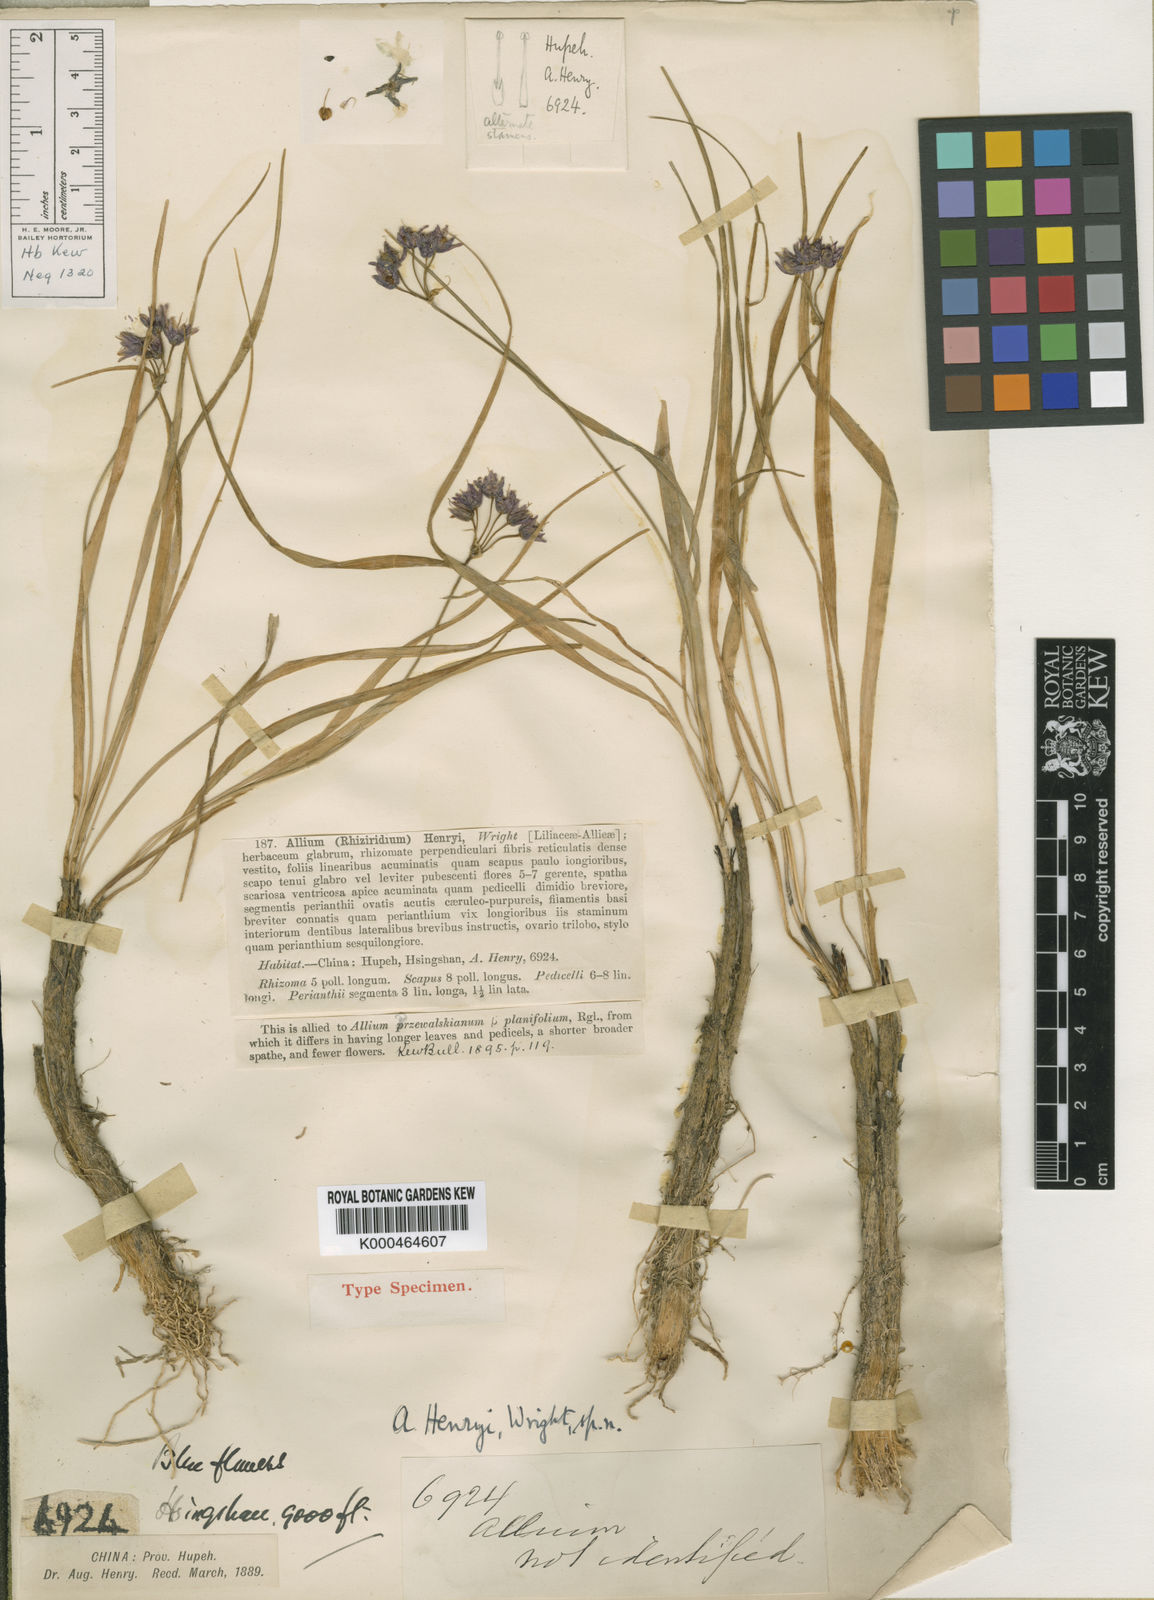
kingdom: Plantae
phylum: Tracheophyta
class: Liliopsida
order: Asparagales
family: Amaryllidaceae
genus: Allium
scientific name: Allium henryi
